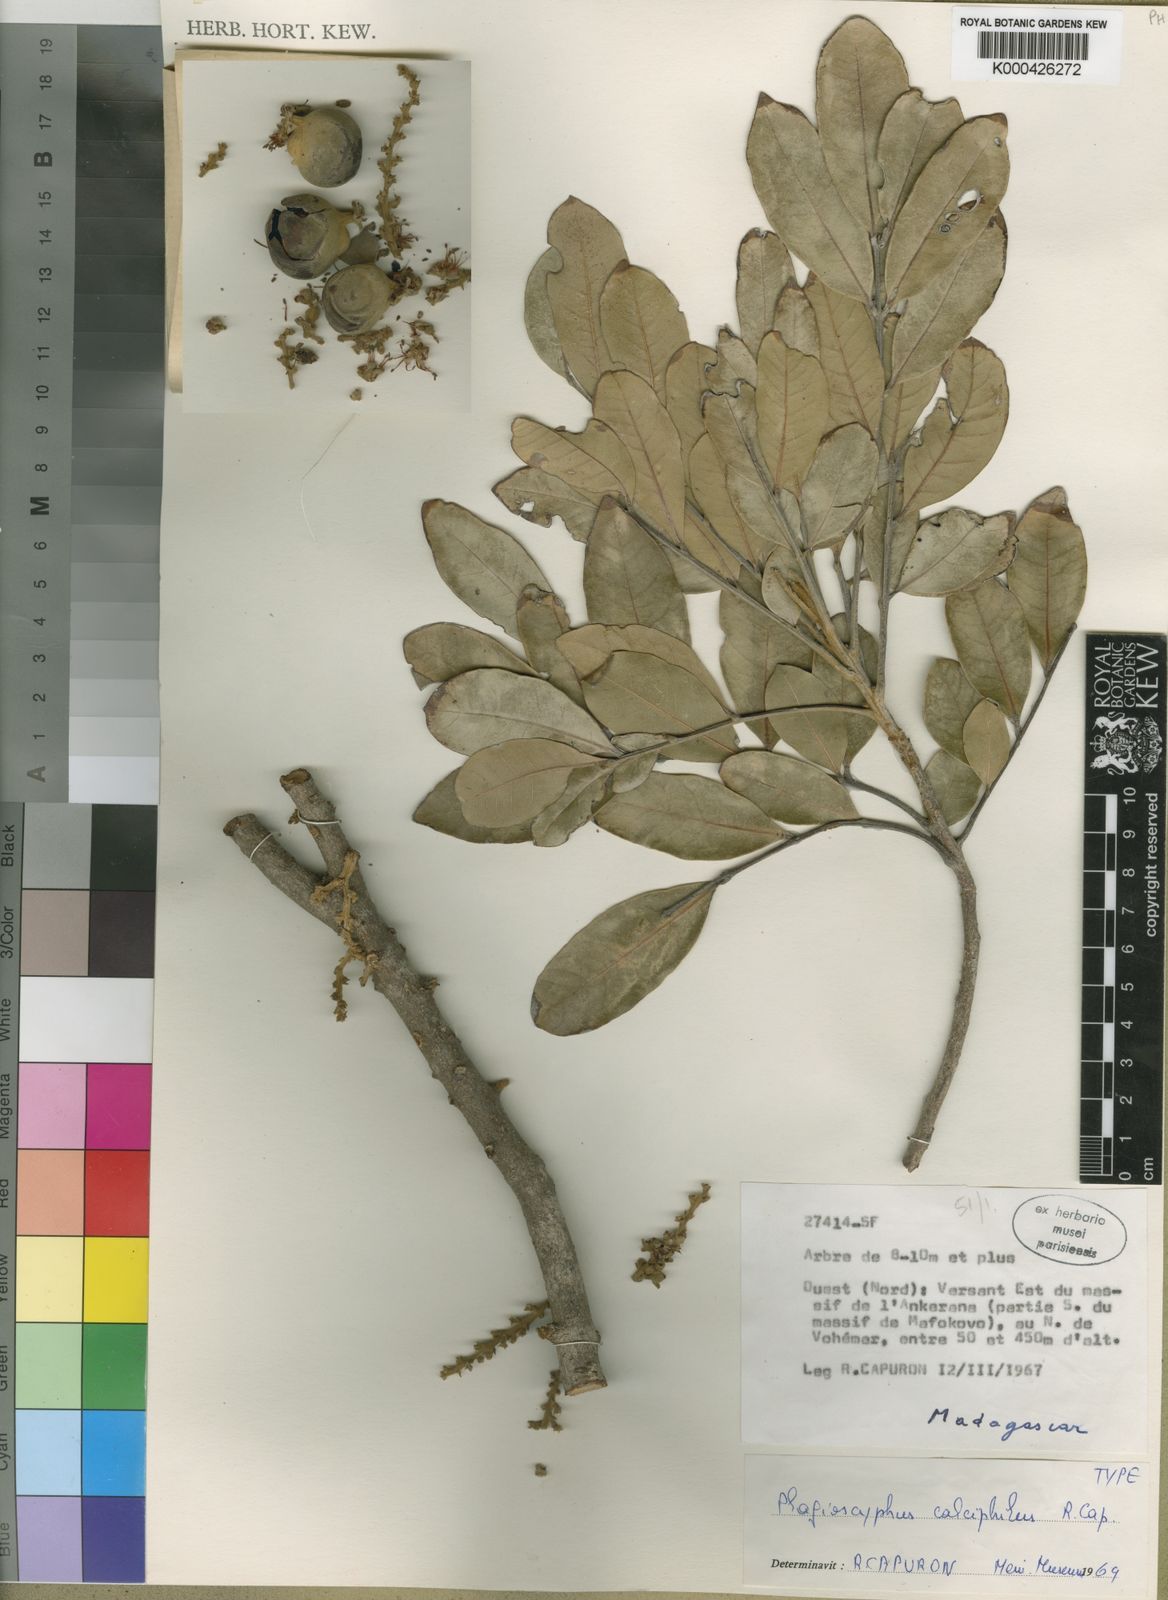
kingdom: Plantae
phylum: Tracheophyta
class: Magnoliopsida
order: Sapindales
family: Sapindaceae
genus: Plagioscyphus
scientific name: Plagioscyphus
